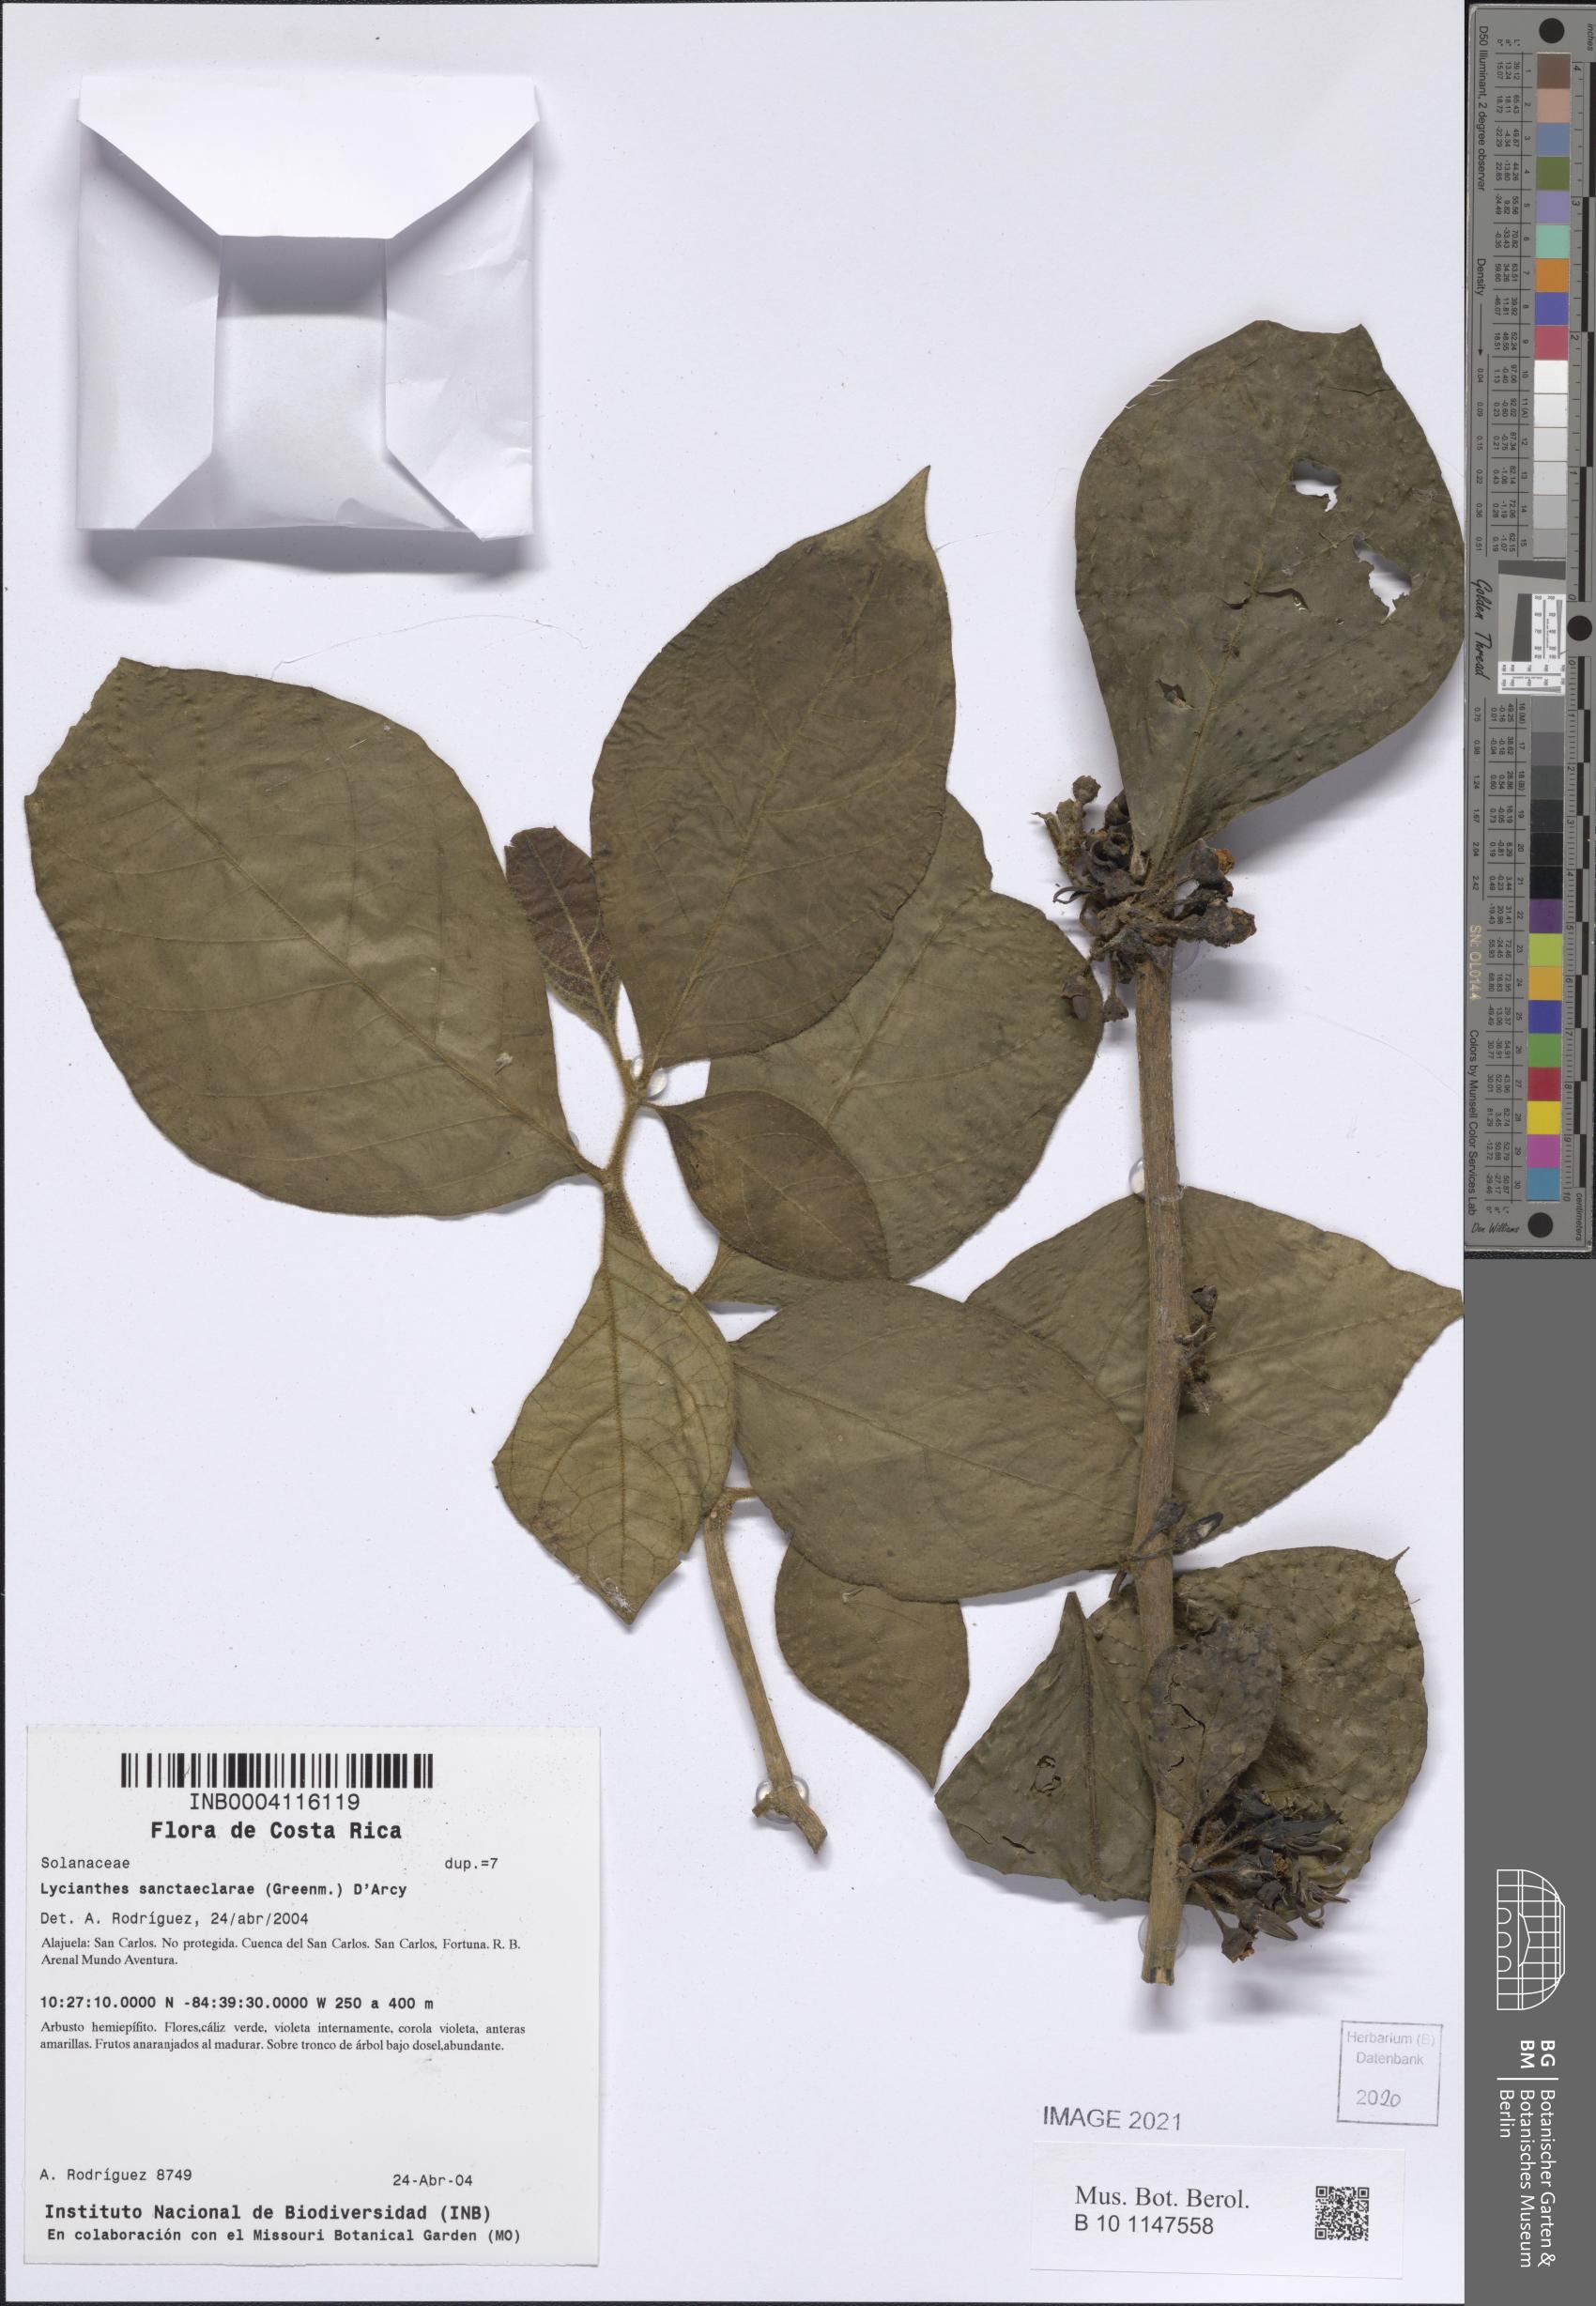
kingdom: Plantae
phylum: Tracheophyta
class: Magnoliopsida
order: Solanales
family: Solanaceae
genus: Lycianthes
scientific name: Lycianthes sanctaeclarae
